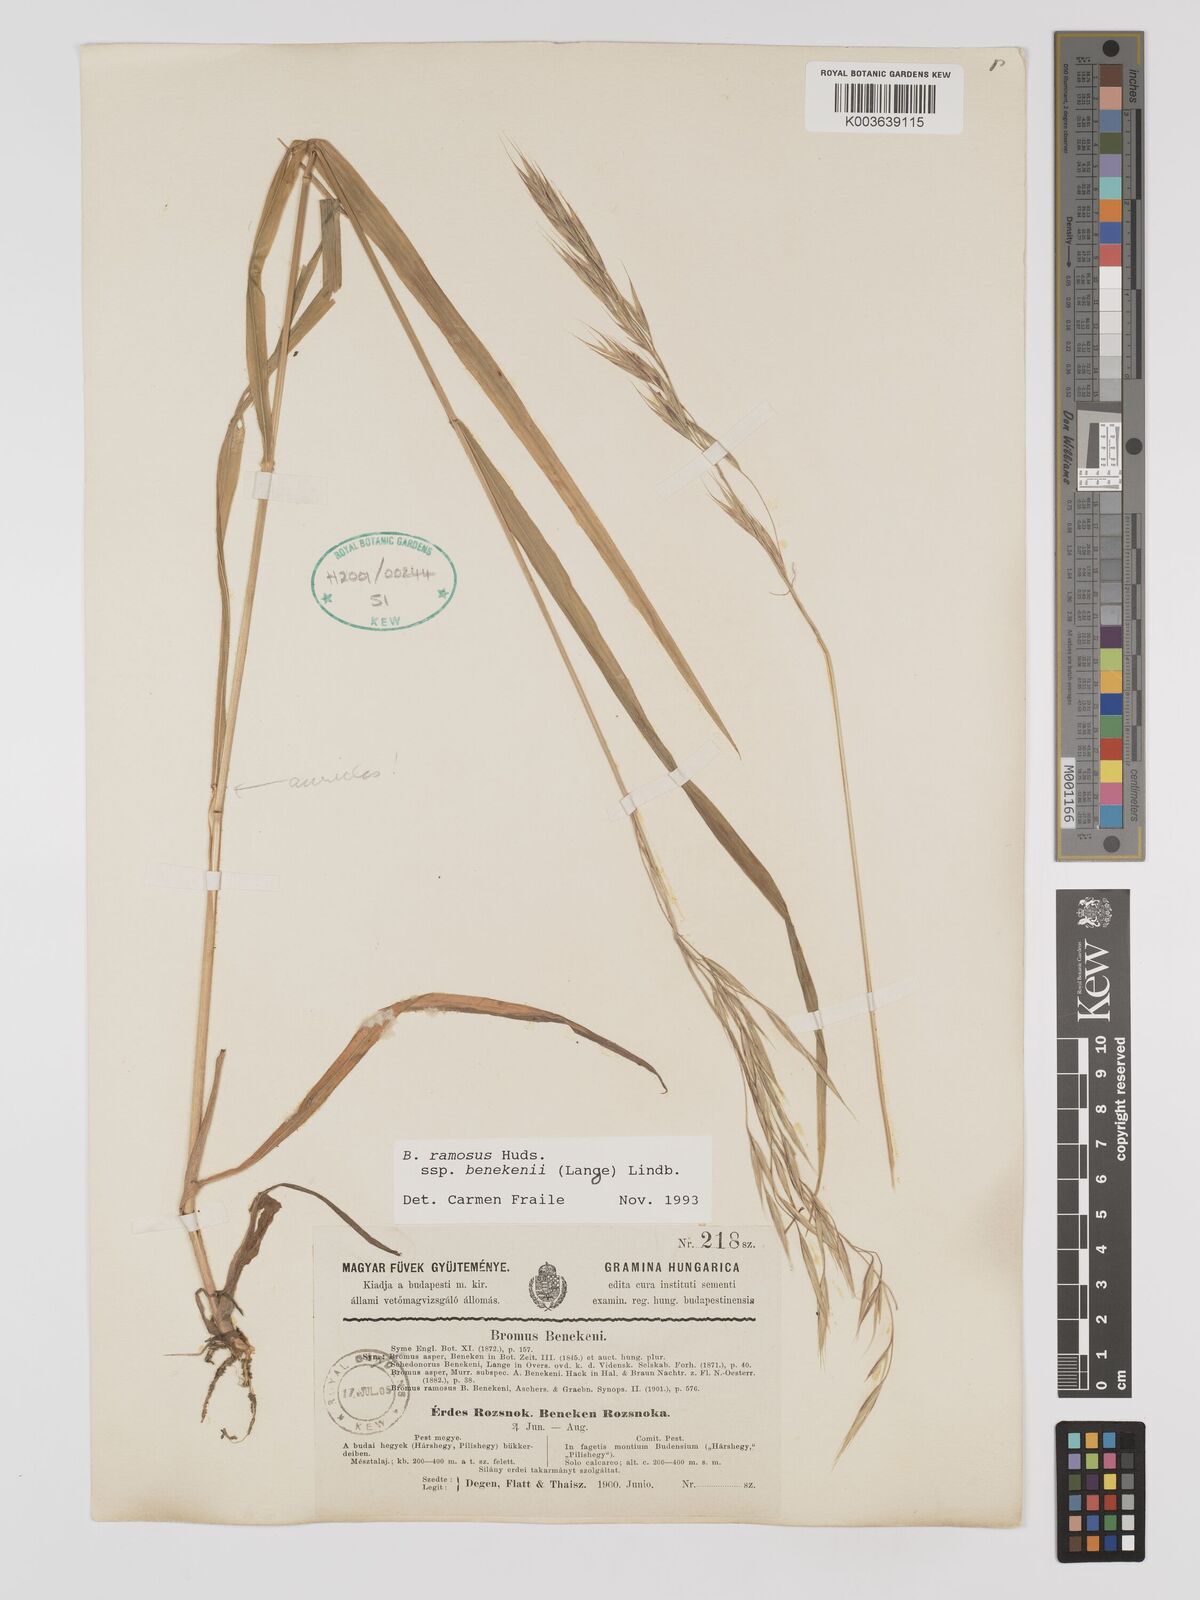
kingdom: Plantae
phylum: Tracheophyta
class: Liliopsida
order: Poales
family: Poaceae
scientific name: Poaceae
